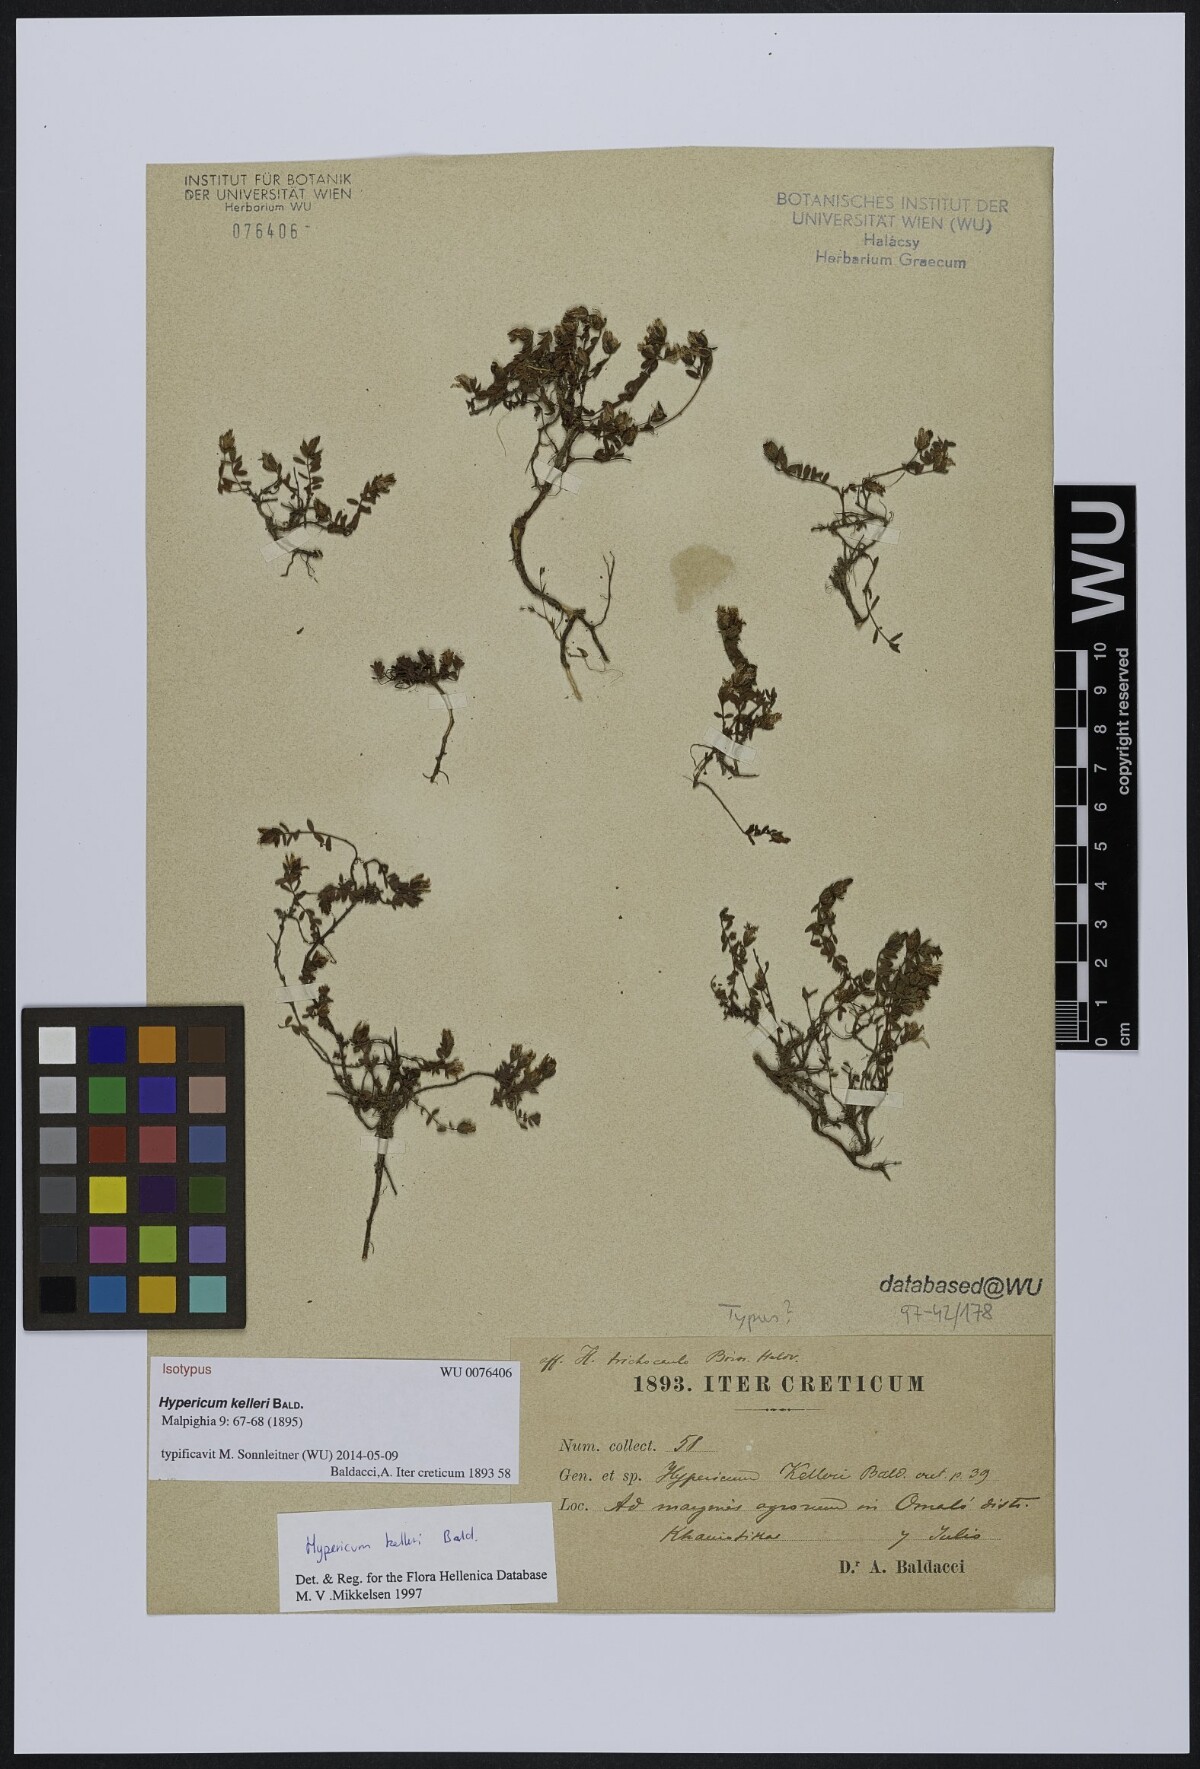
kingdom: Plantae
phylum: Tracheophyta
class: Magnoliopsida
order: Malpighiales
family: Hypericaceae
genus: Hypericum
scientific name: Hypericum kelleri
